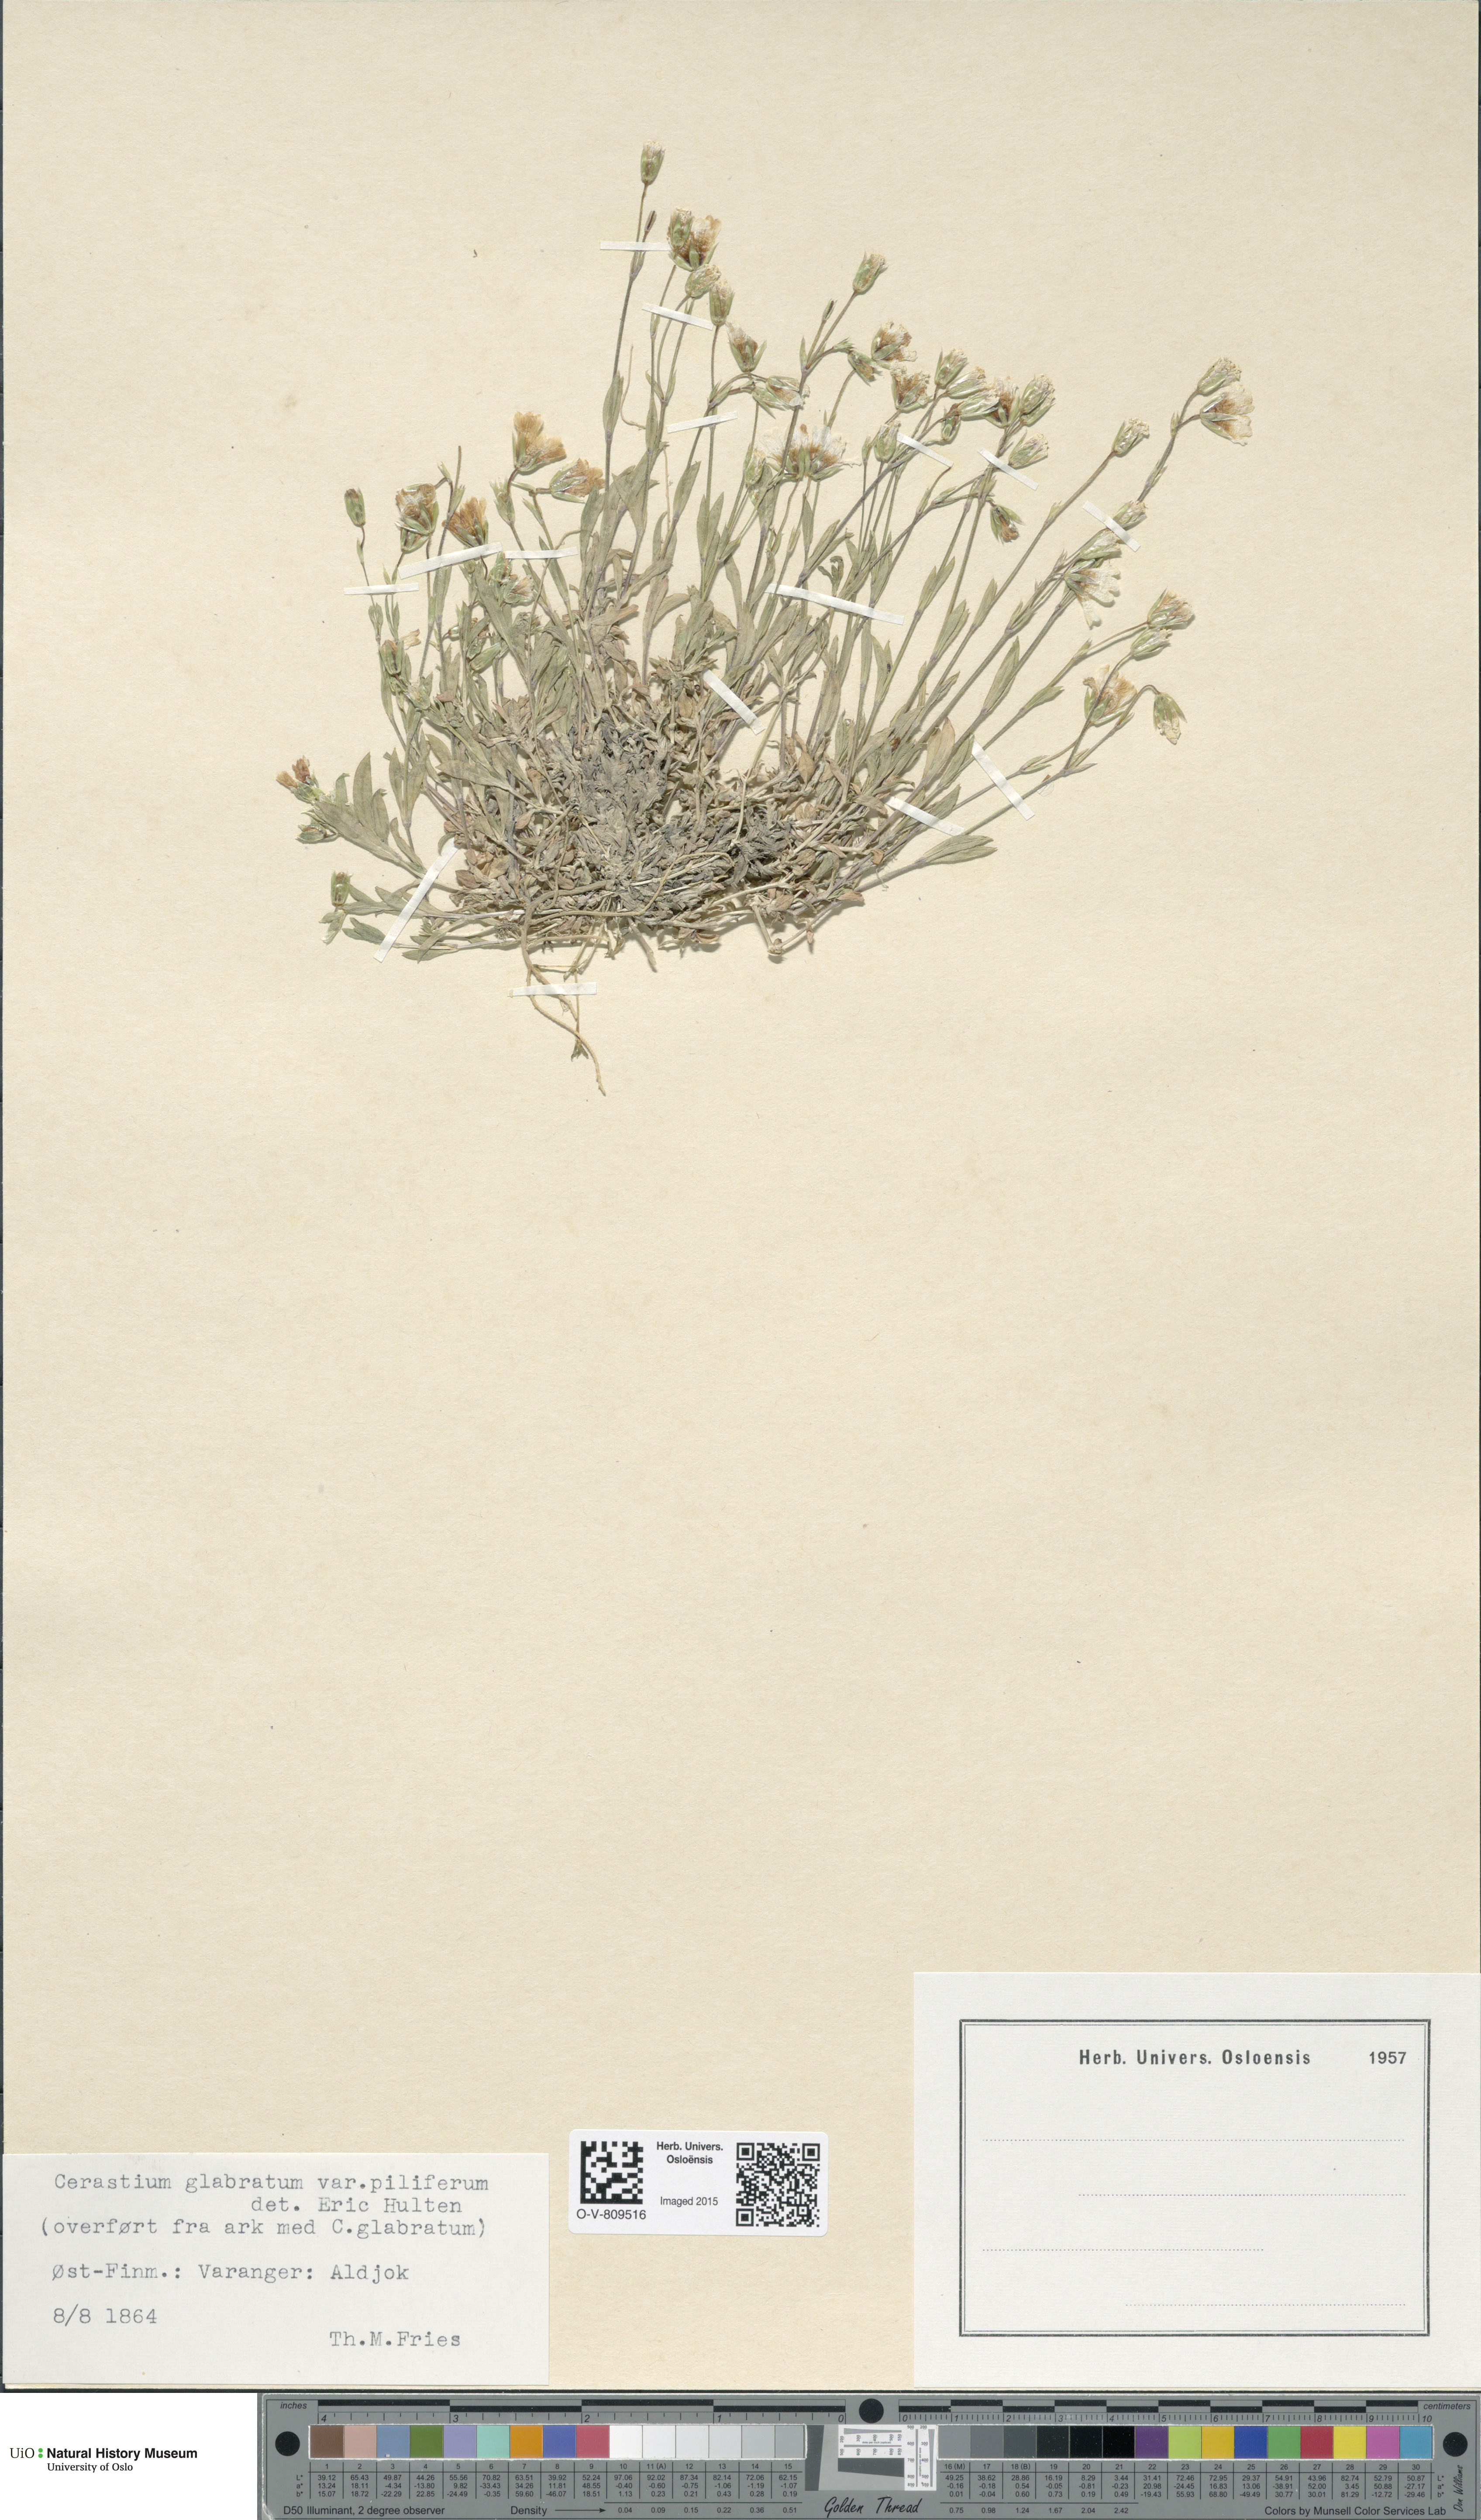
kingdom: Plantae
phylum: Tracheophyta
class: Magnoliopsida
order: Caryophyllales
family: Caryophyllaceae
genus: Cerastium
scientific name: Cerastium alpinum
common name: Alpine mouse-ear
